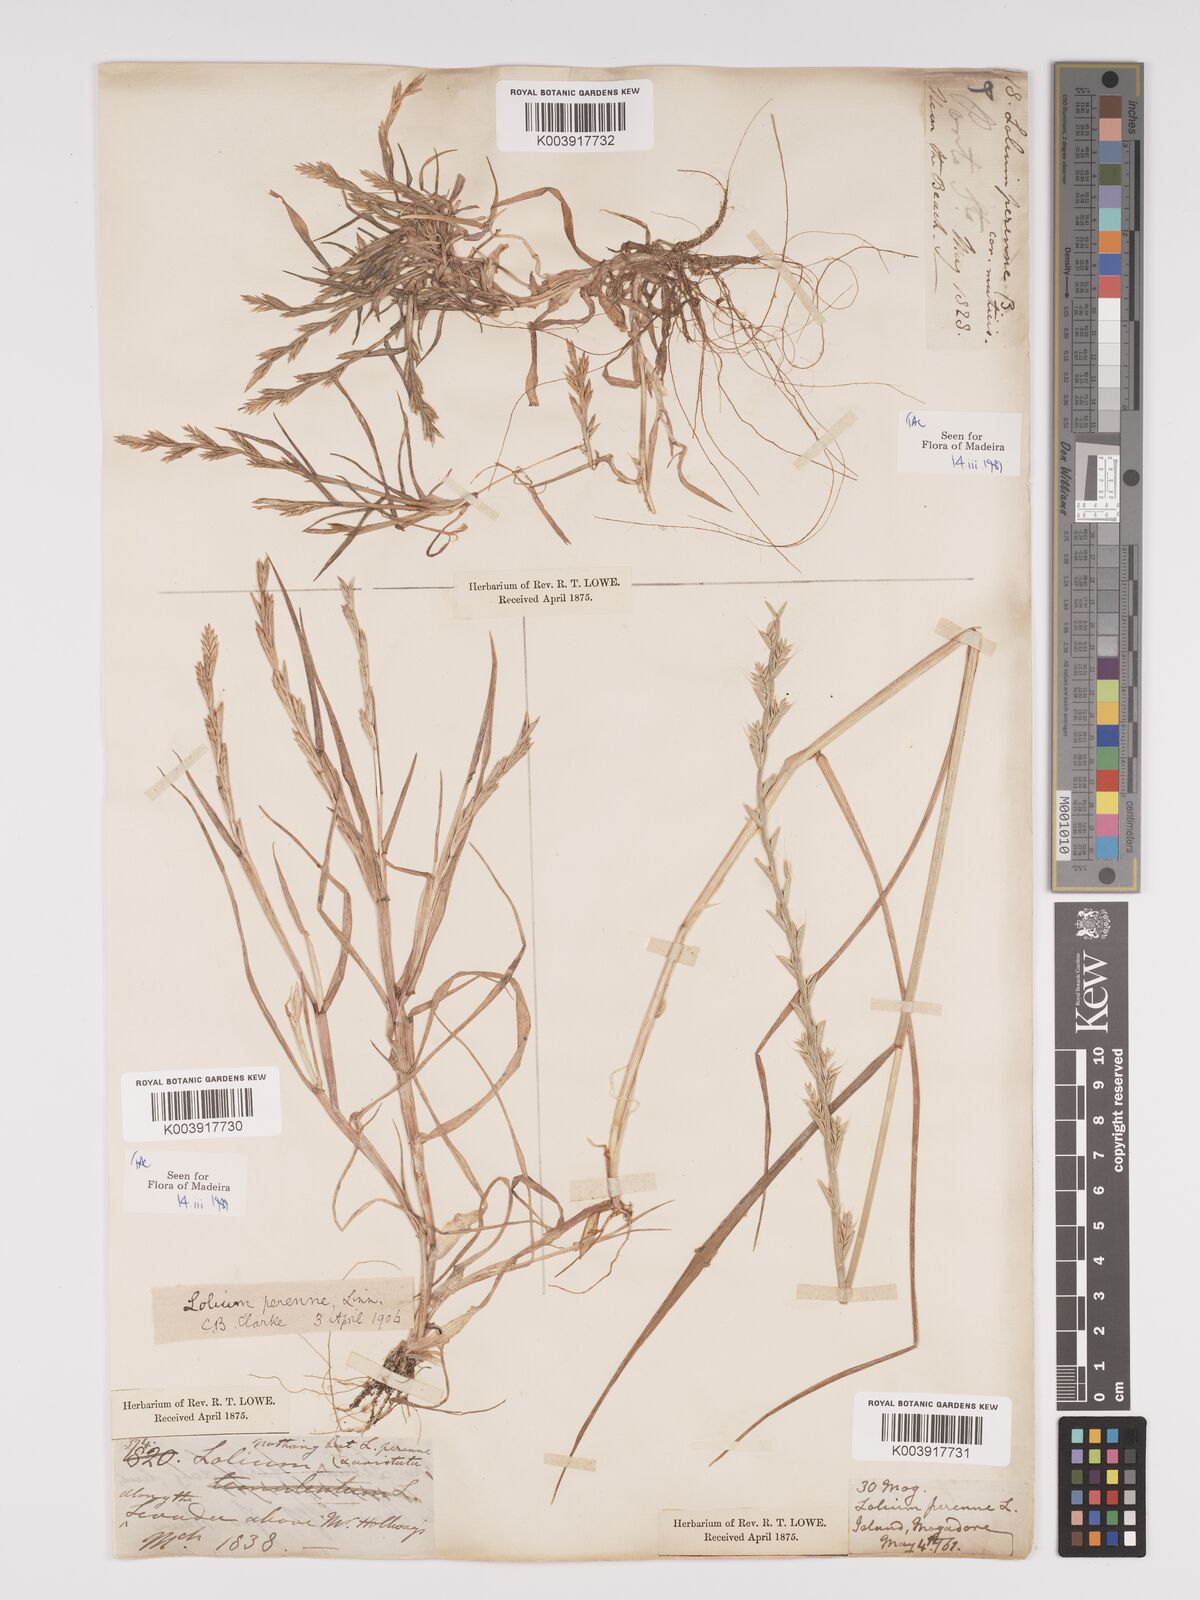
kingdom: Plantae
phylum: Tracheophyta
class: Liliopsida
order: Poales
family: Poaceae
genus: Lolium
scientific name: Lolium perenne
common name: Perennial ryegrass
